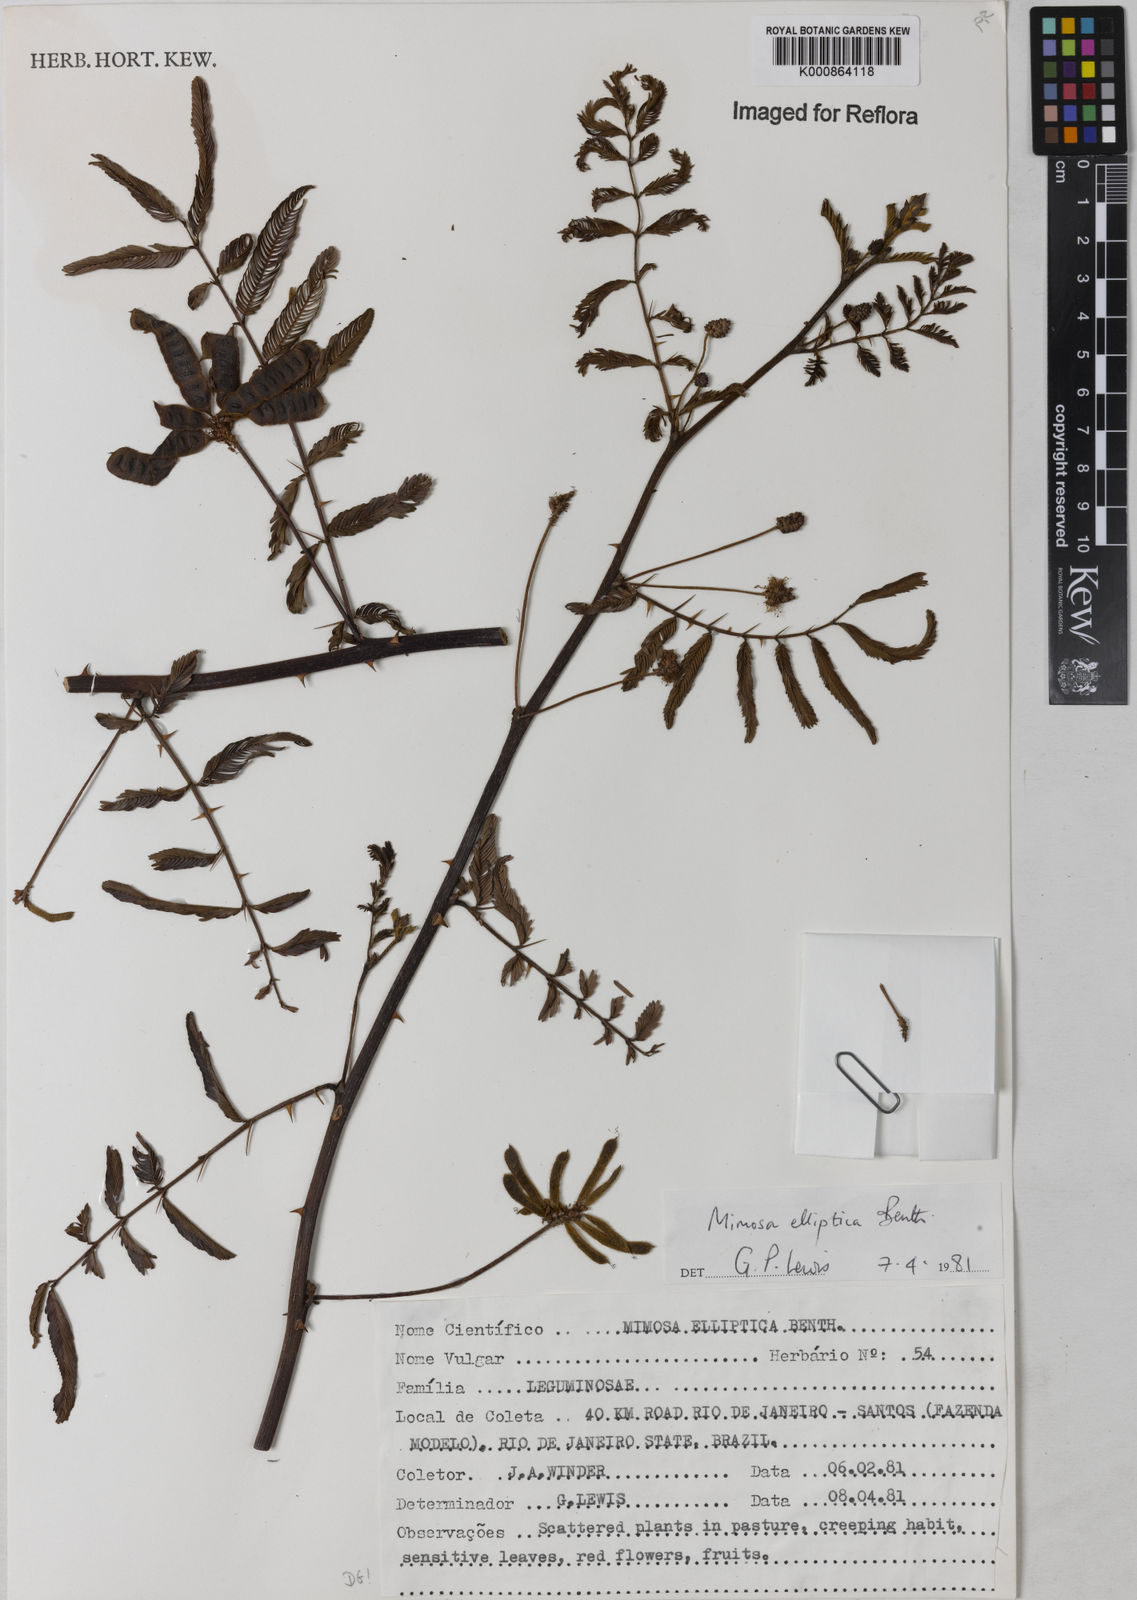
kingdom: Plantae
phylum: Tracheophyta
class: Magnoliopsida
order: Fabales
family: Fabaceae
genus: Mimosa
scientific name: Mimosa elliptica
